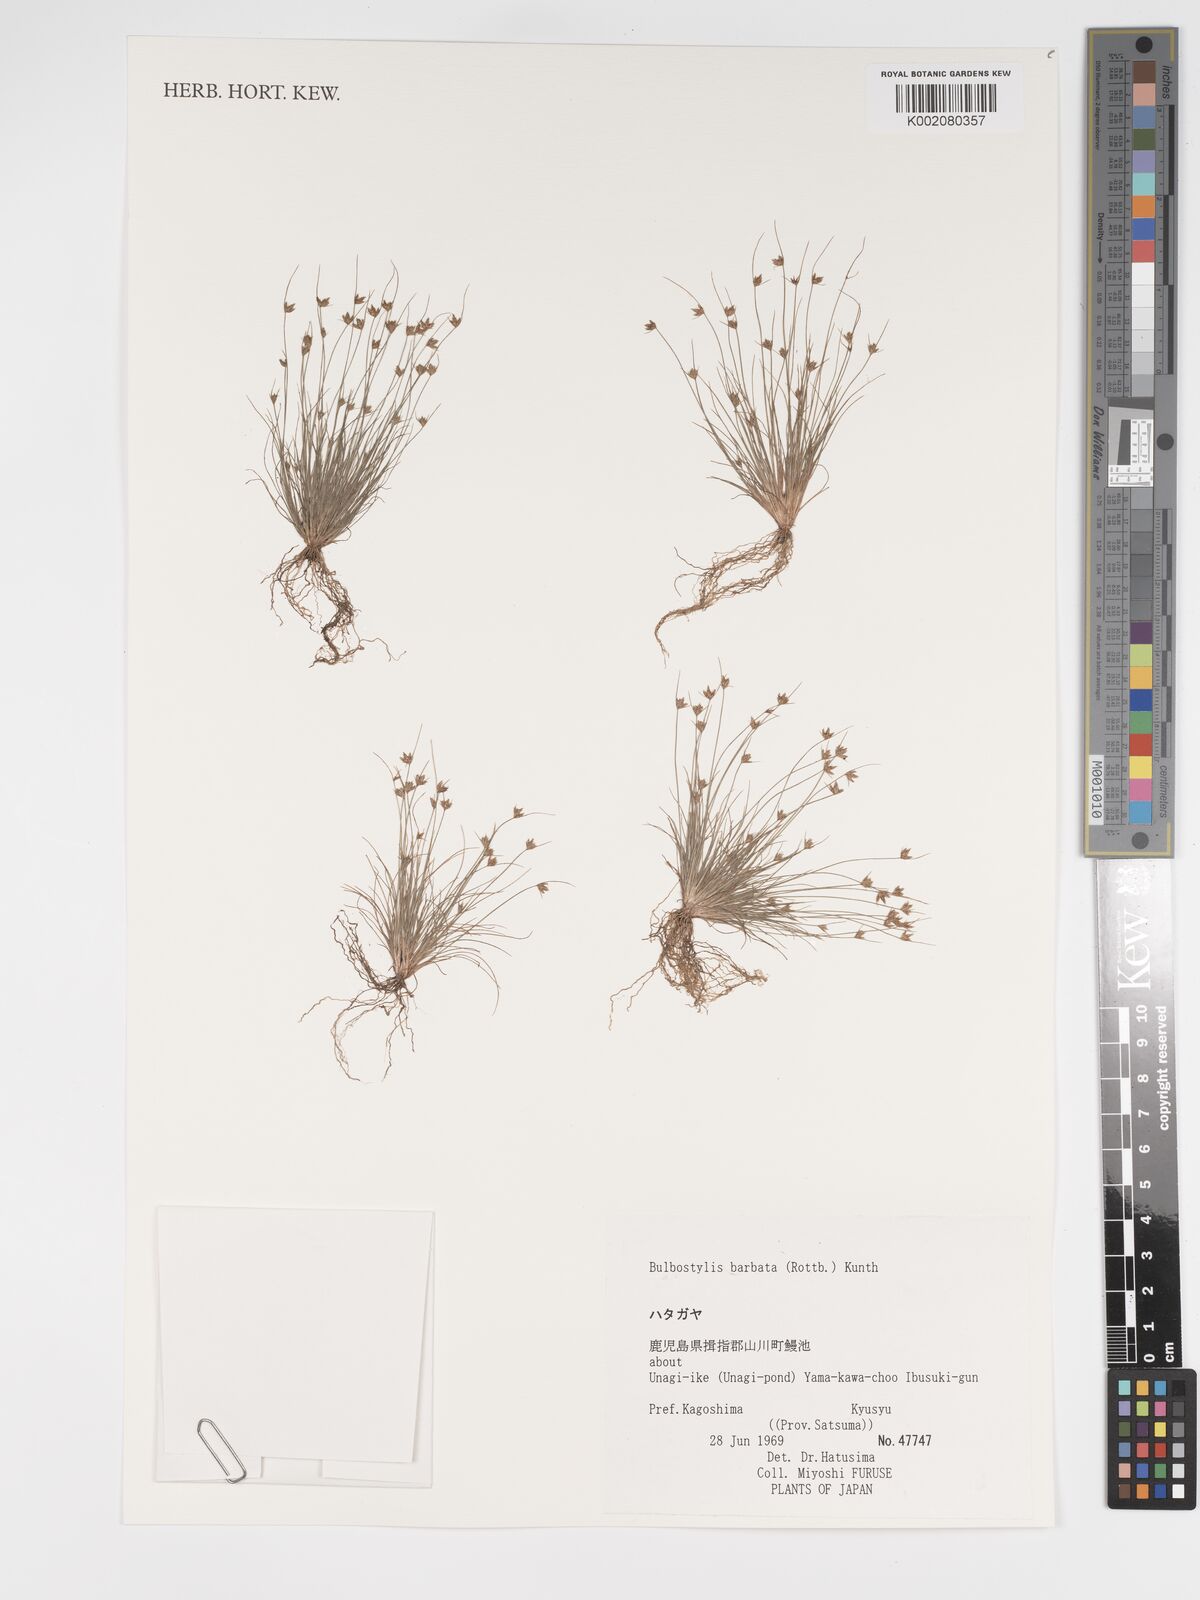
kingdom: Plantae
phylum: Tracheophyta
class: Liliopsida
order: Poales
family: Cyperaceae
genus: Bulbostylis
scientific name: Bulbostylis barbata
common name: Watergrass
